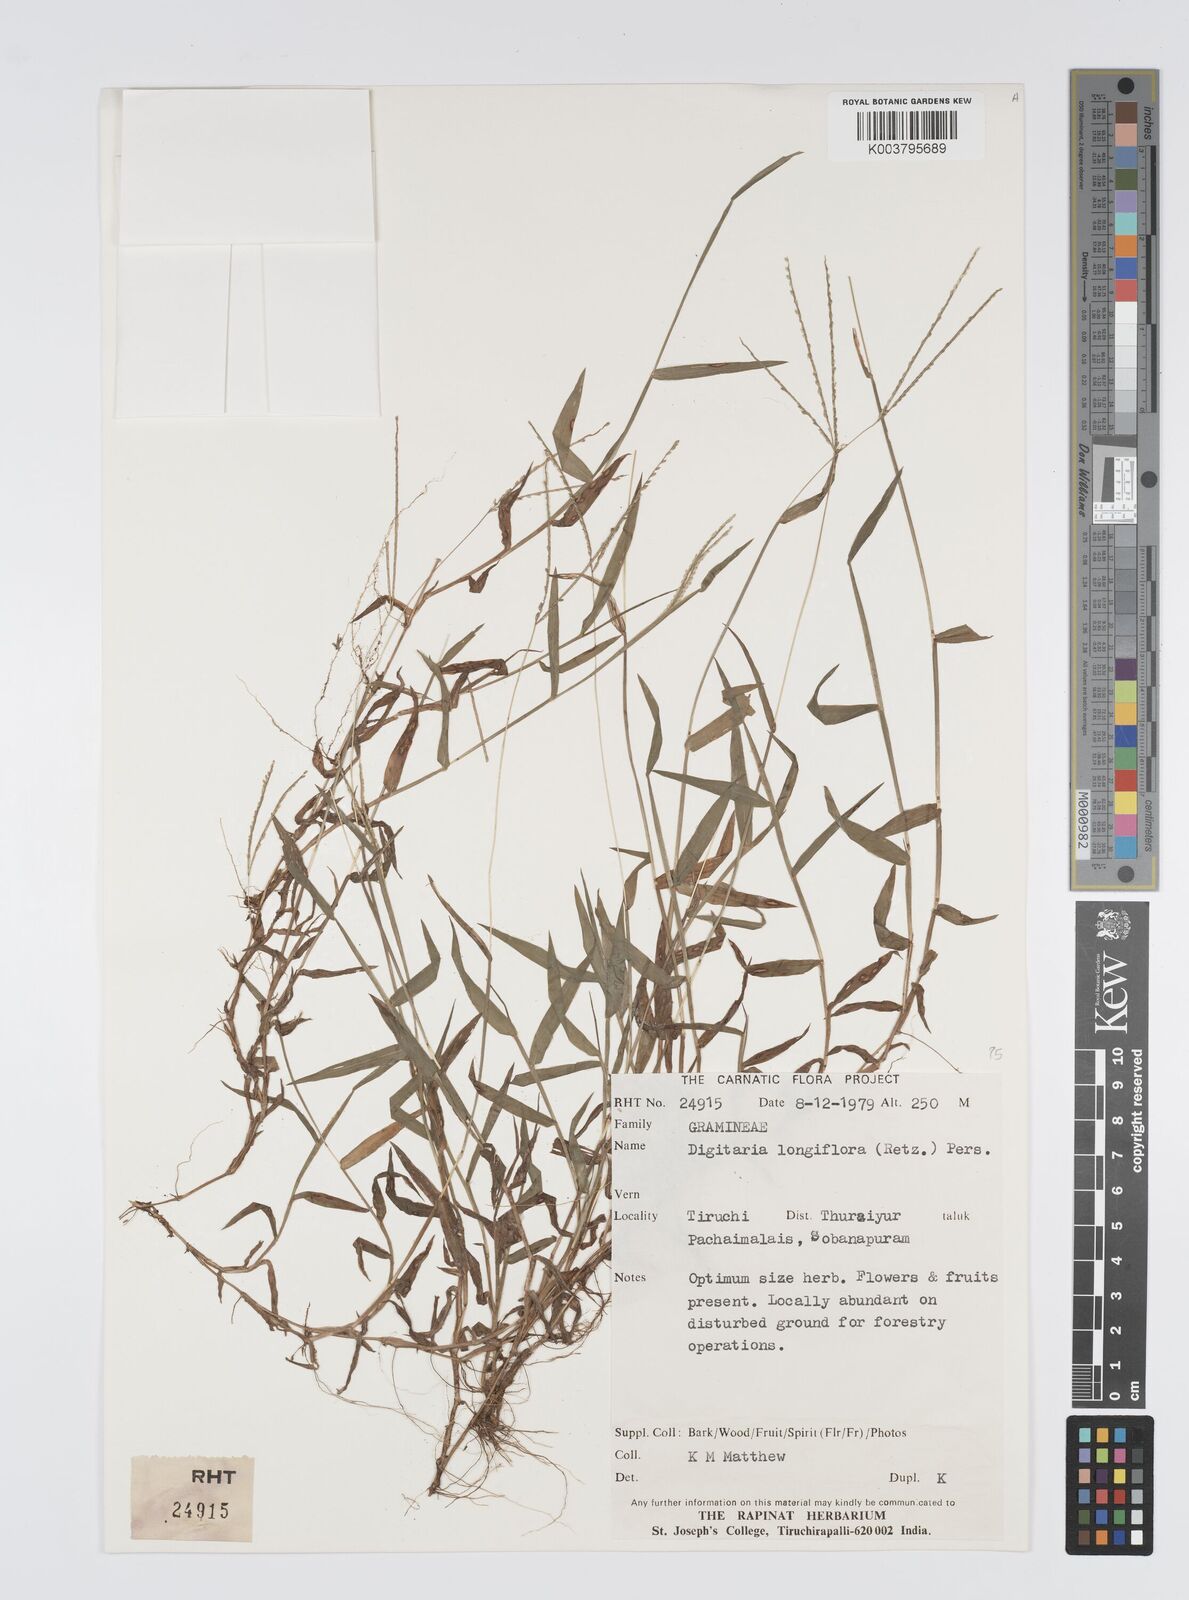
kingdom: Plantae
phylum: Tracheophyta
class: Liliopsida
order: Poales
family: Poaceae
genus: Digitaria
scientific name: Digitaria longiflora
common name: Wire crabgrass
